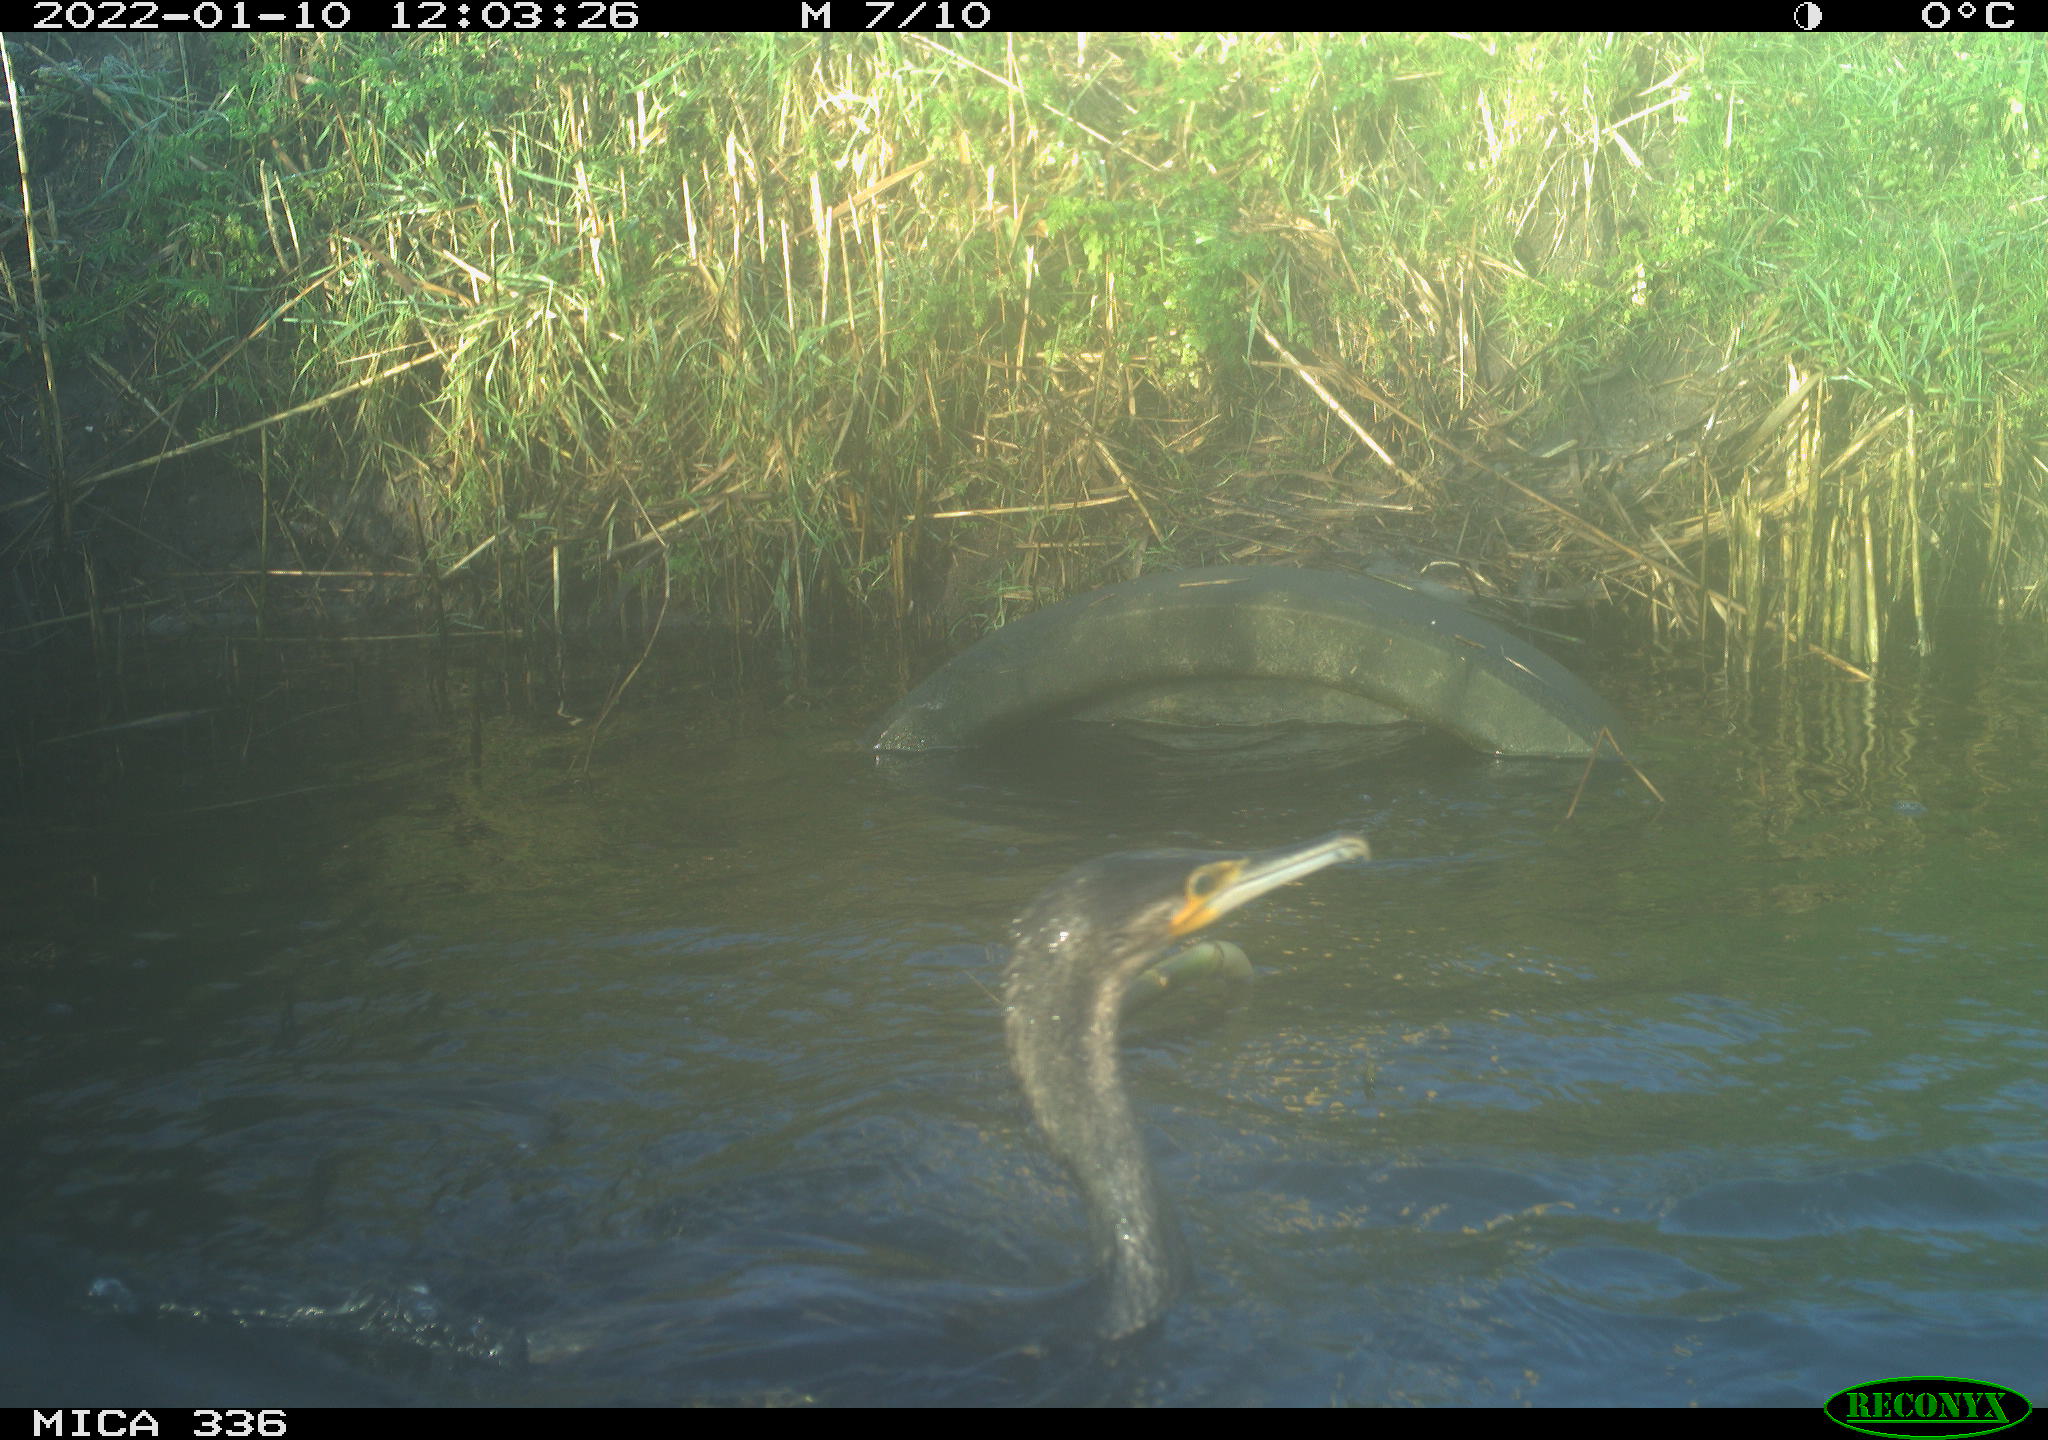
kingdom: Animalia
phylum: Chordata
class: Aves
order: Suliformes
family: Phalacrocoracidae
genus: Phalacrocorax
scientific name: Phalacrocorax carbo
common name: Great cormorant
